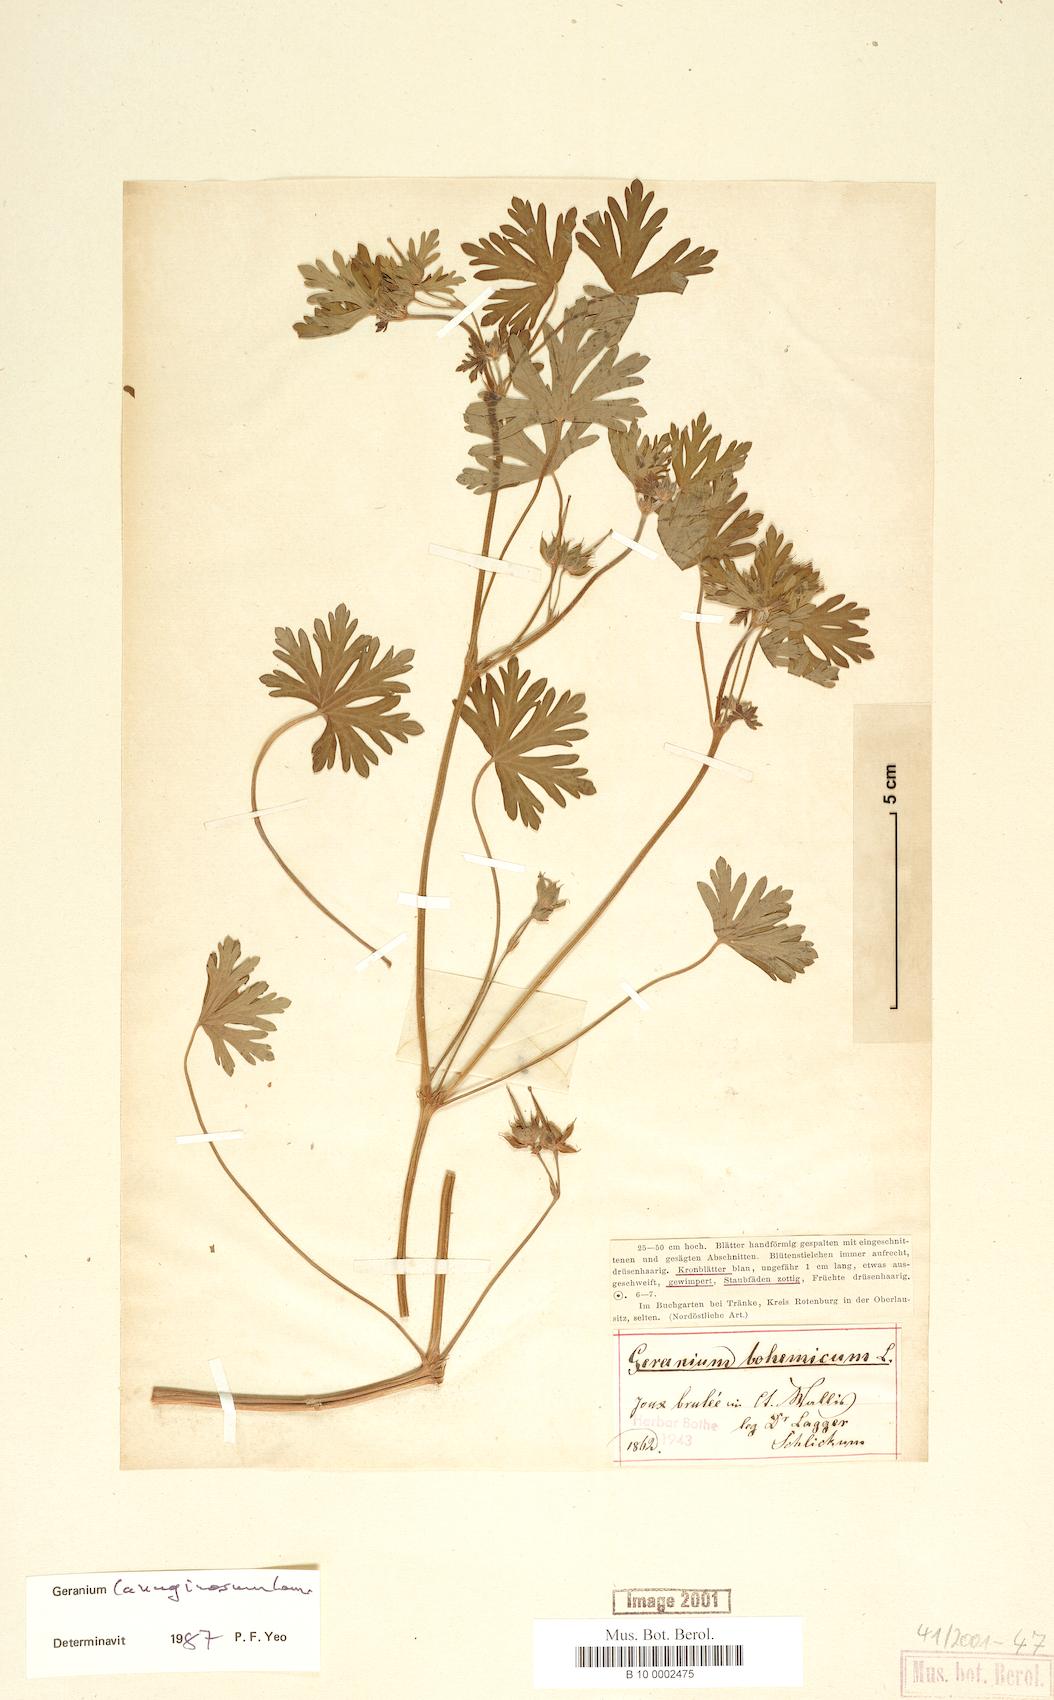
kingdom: Plantae
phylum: Tracheophyta
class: Magnoliopsida
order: Geraniales
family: Geraniaceae
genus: Geranium
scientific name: Geranium lanuginosum
